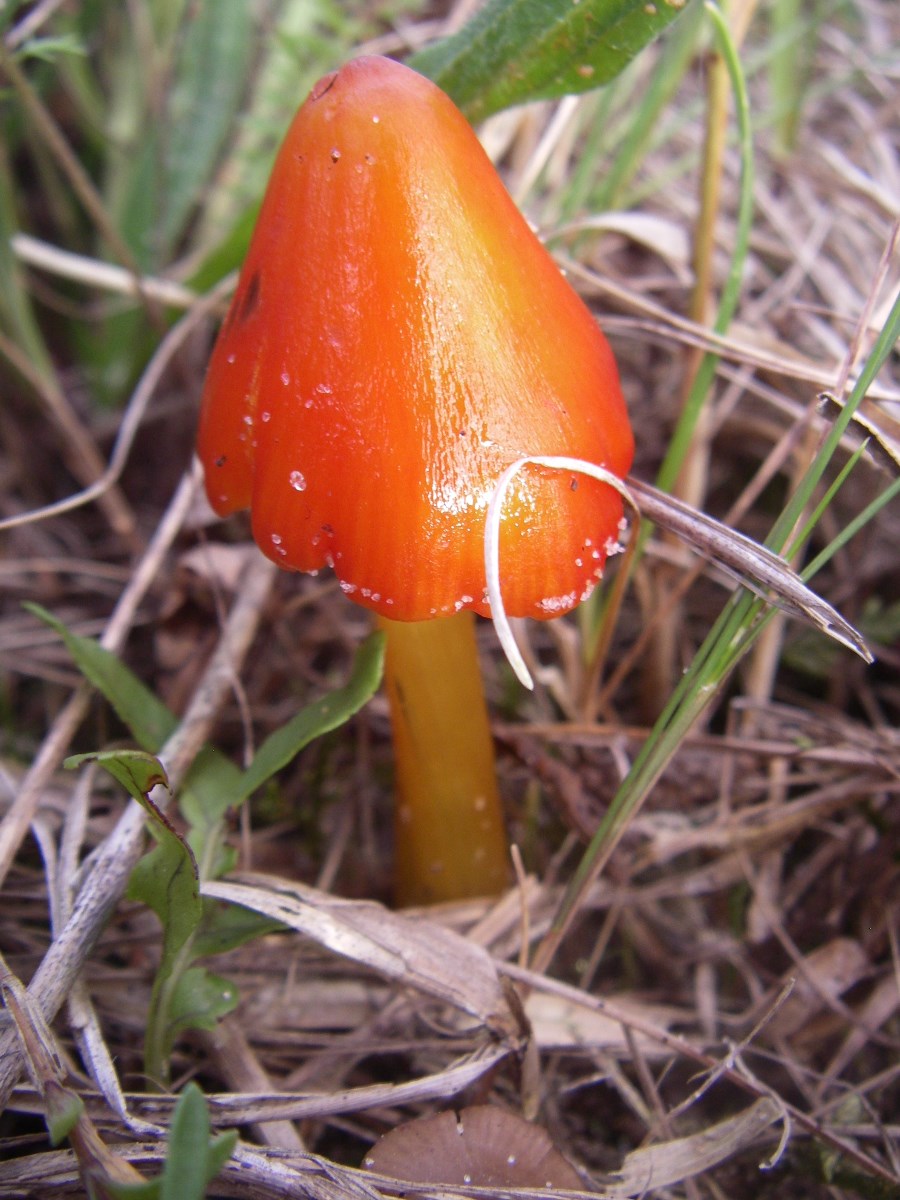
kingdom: Fungi
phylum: Basidiomycota
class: Agaricomycetes
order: Agaricales
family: Hygrophoraceae
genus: Hygrocybe
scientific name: Hygrocybe conica
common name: kegle-vokshat
